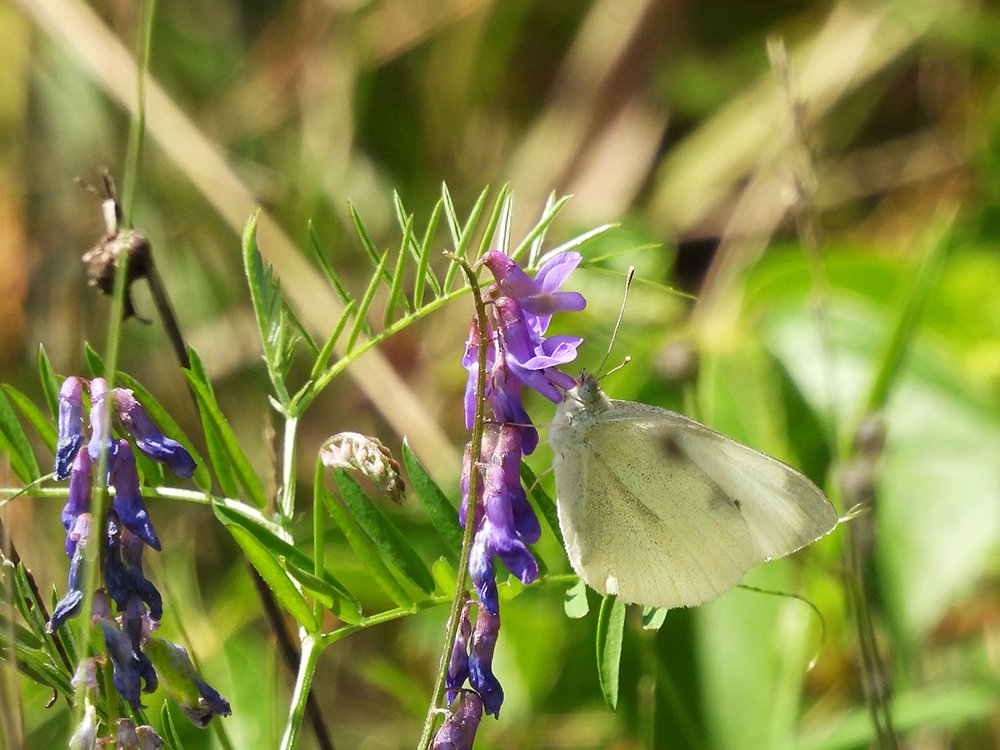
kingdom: Animalia
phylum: Arthropoda
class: Insecta
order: Lepidoptera
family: Pieridae
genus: Pieris
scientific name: Pieris rapae
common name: Cabbage White
